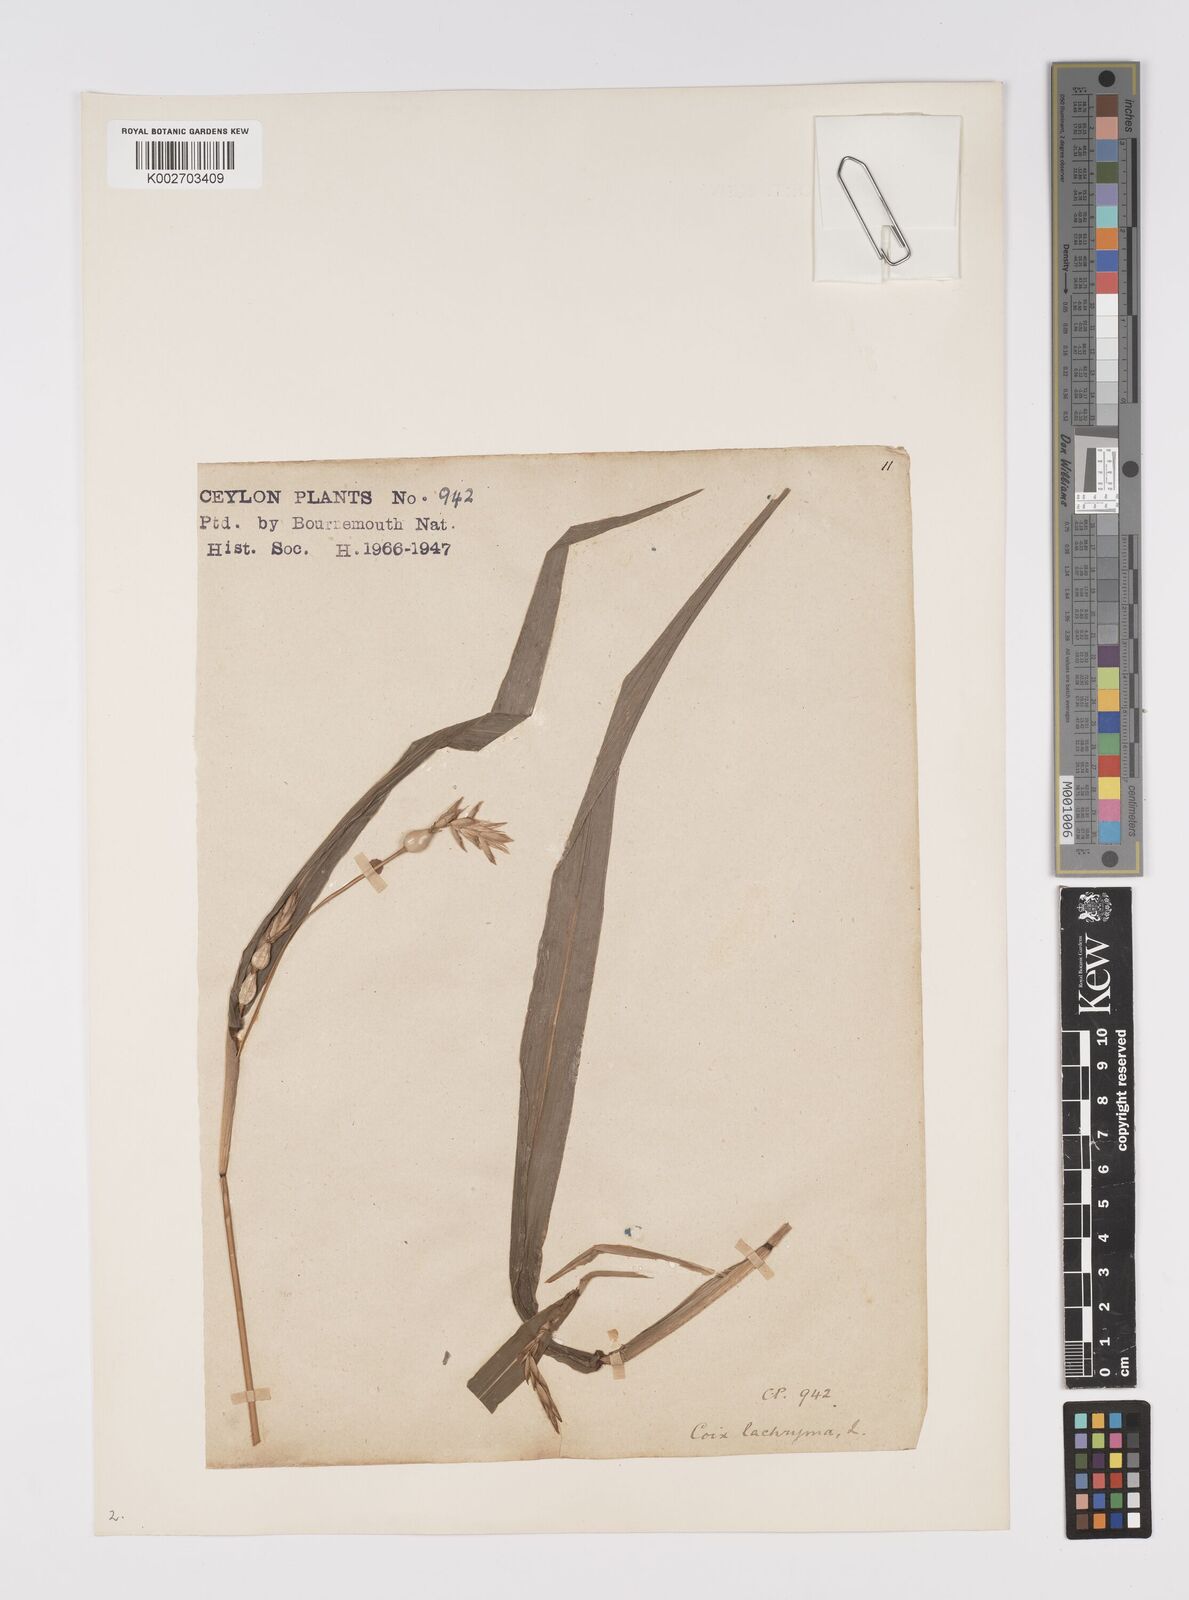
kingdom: Plantae
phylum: Tracheophyta
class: Liliopsida
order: Poales
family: Poaceae
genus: Coix
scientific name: Coix lacryma-jobi
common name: Job's tears
